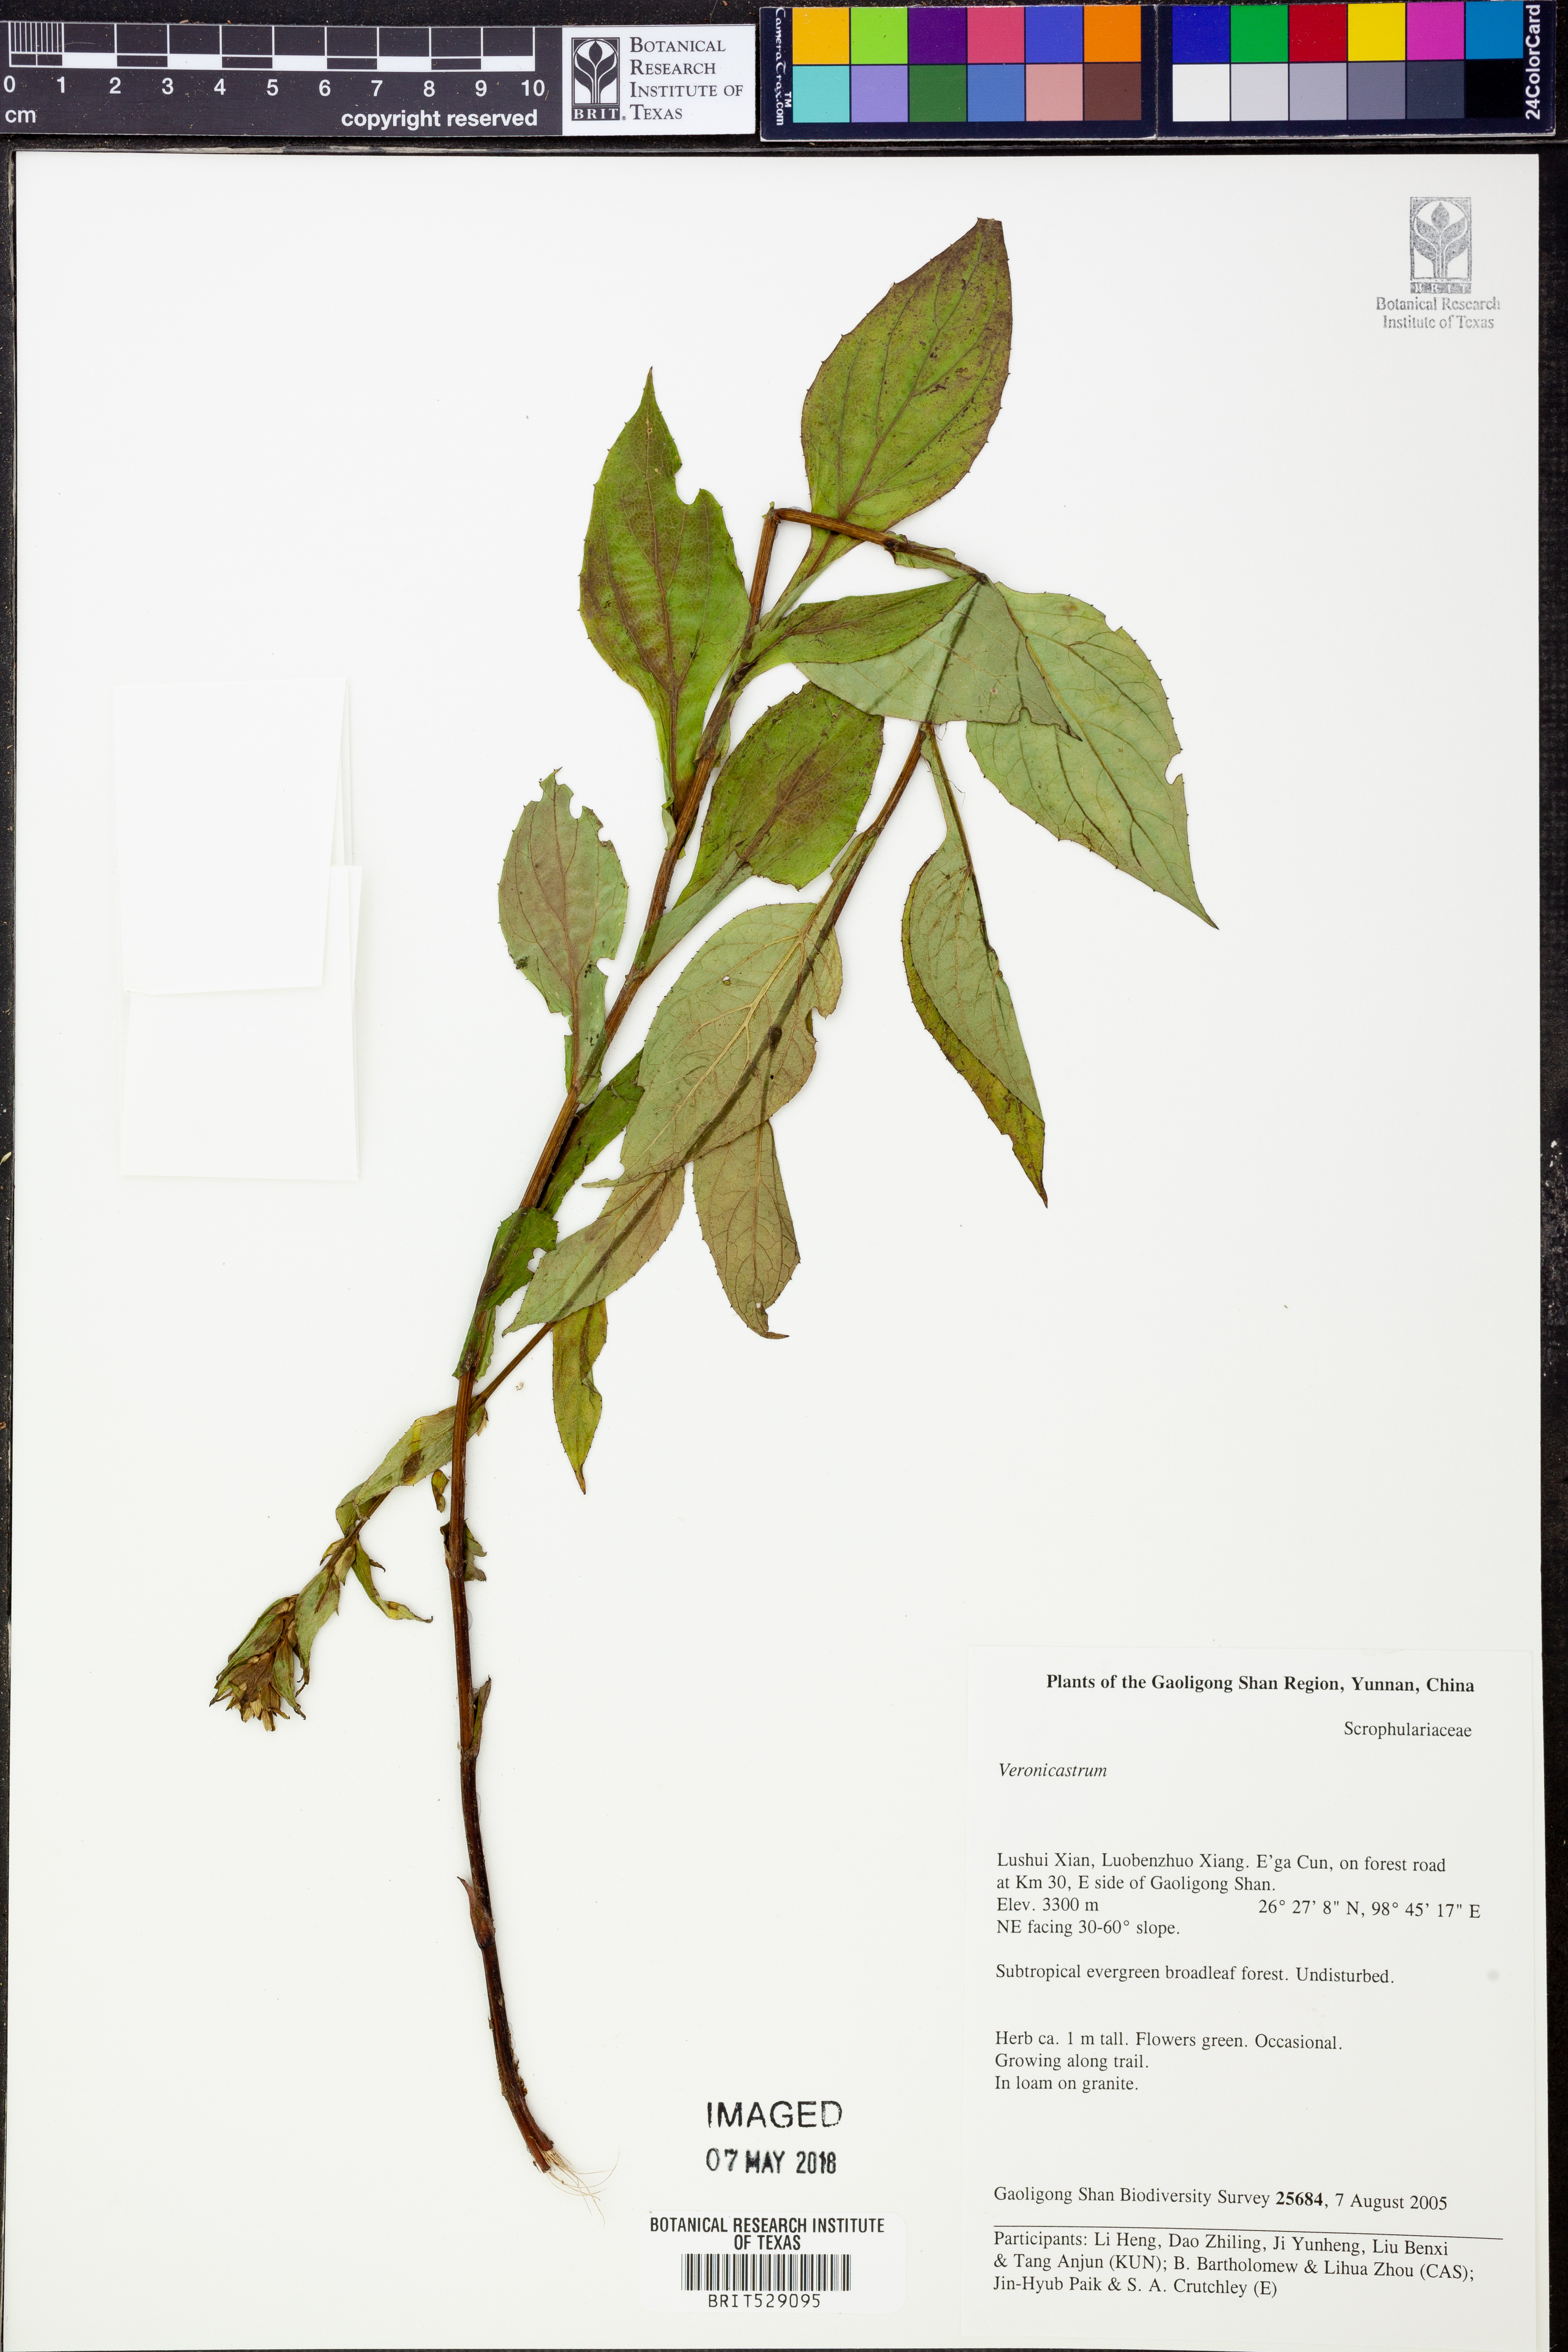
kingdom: Plantae
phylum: Tracheophyta
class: Magnoliopsida
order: Asterales
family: Asteraceae
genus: Ainsliaea
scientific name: Ainsliaea angustifolia
